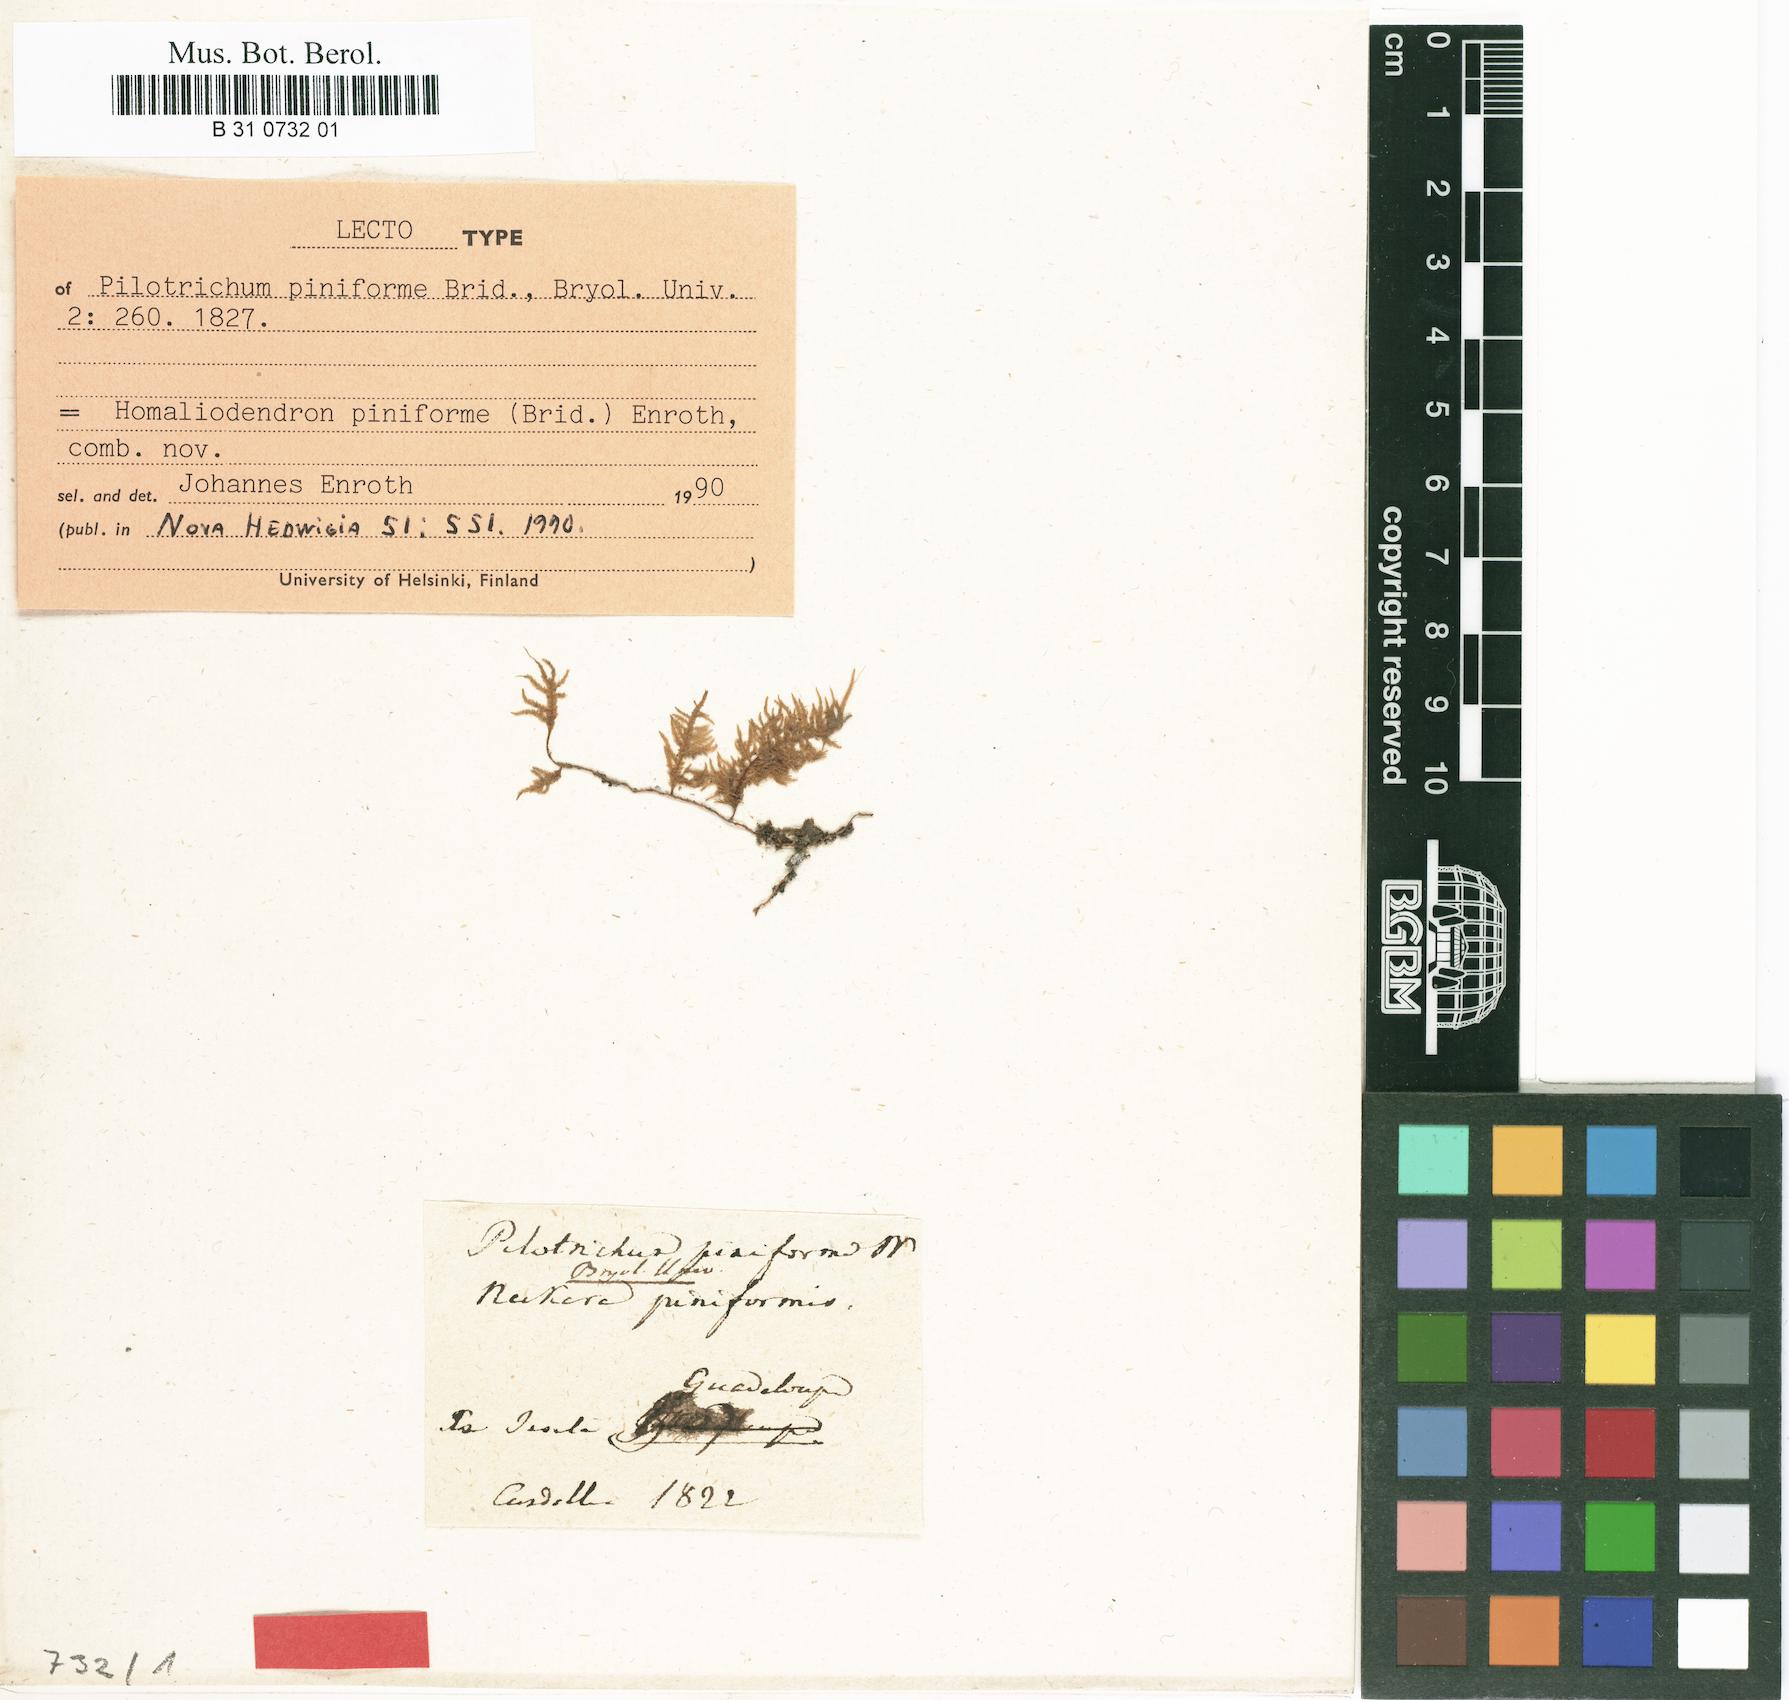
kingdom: Plantae
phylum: Bryophyta
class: Bryopsida
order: Hypnales
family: Orthostichellaceae
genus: Pinnatidendron
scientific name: Pinnatidendron piniforme
